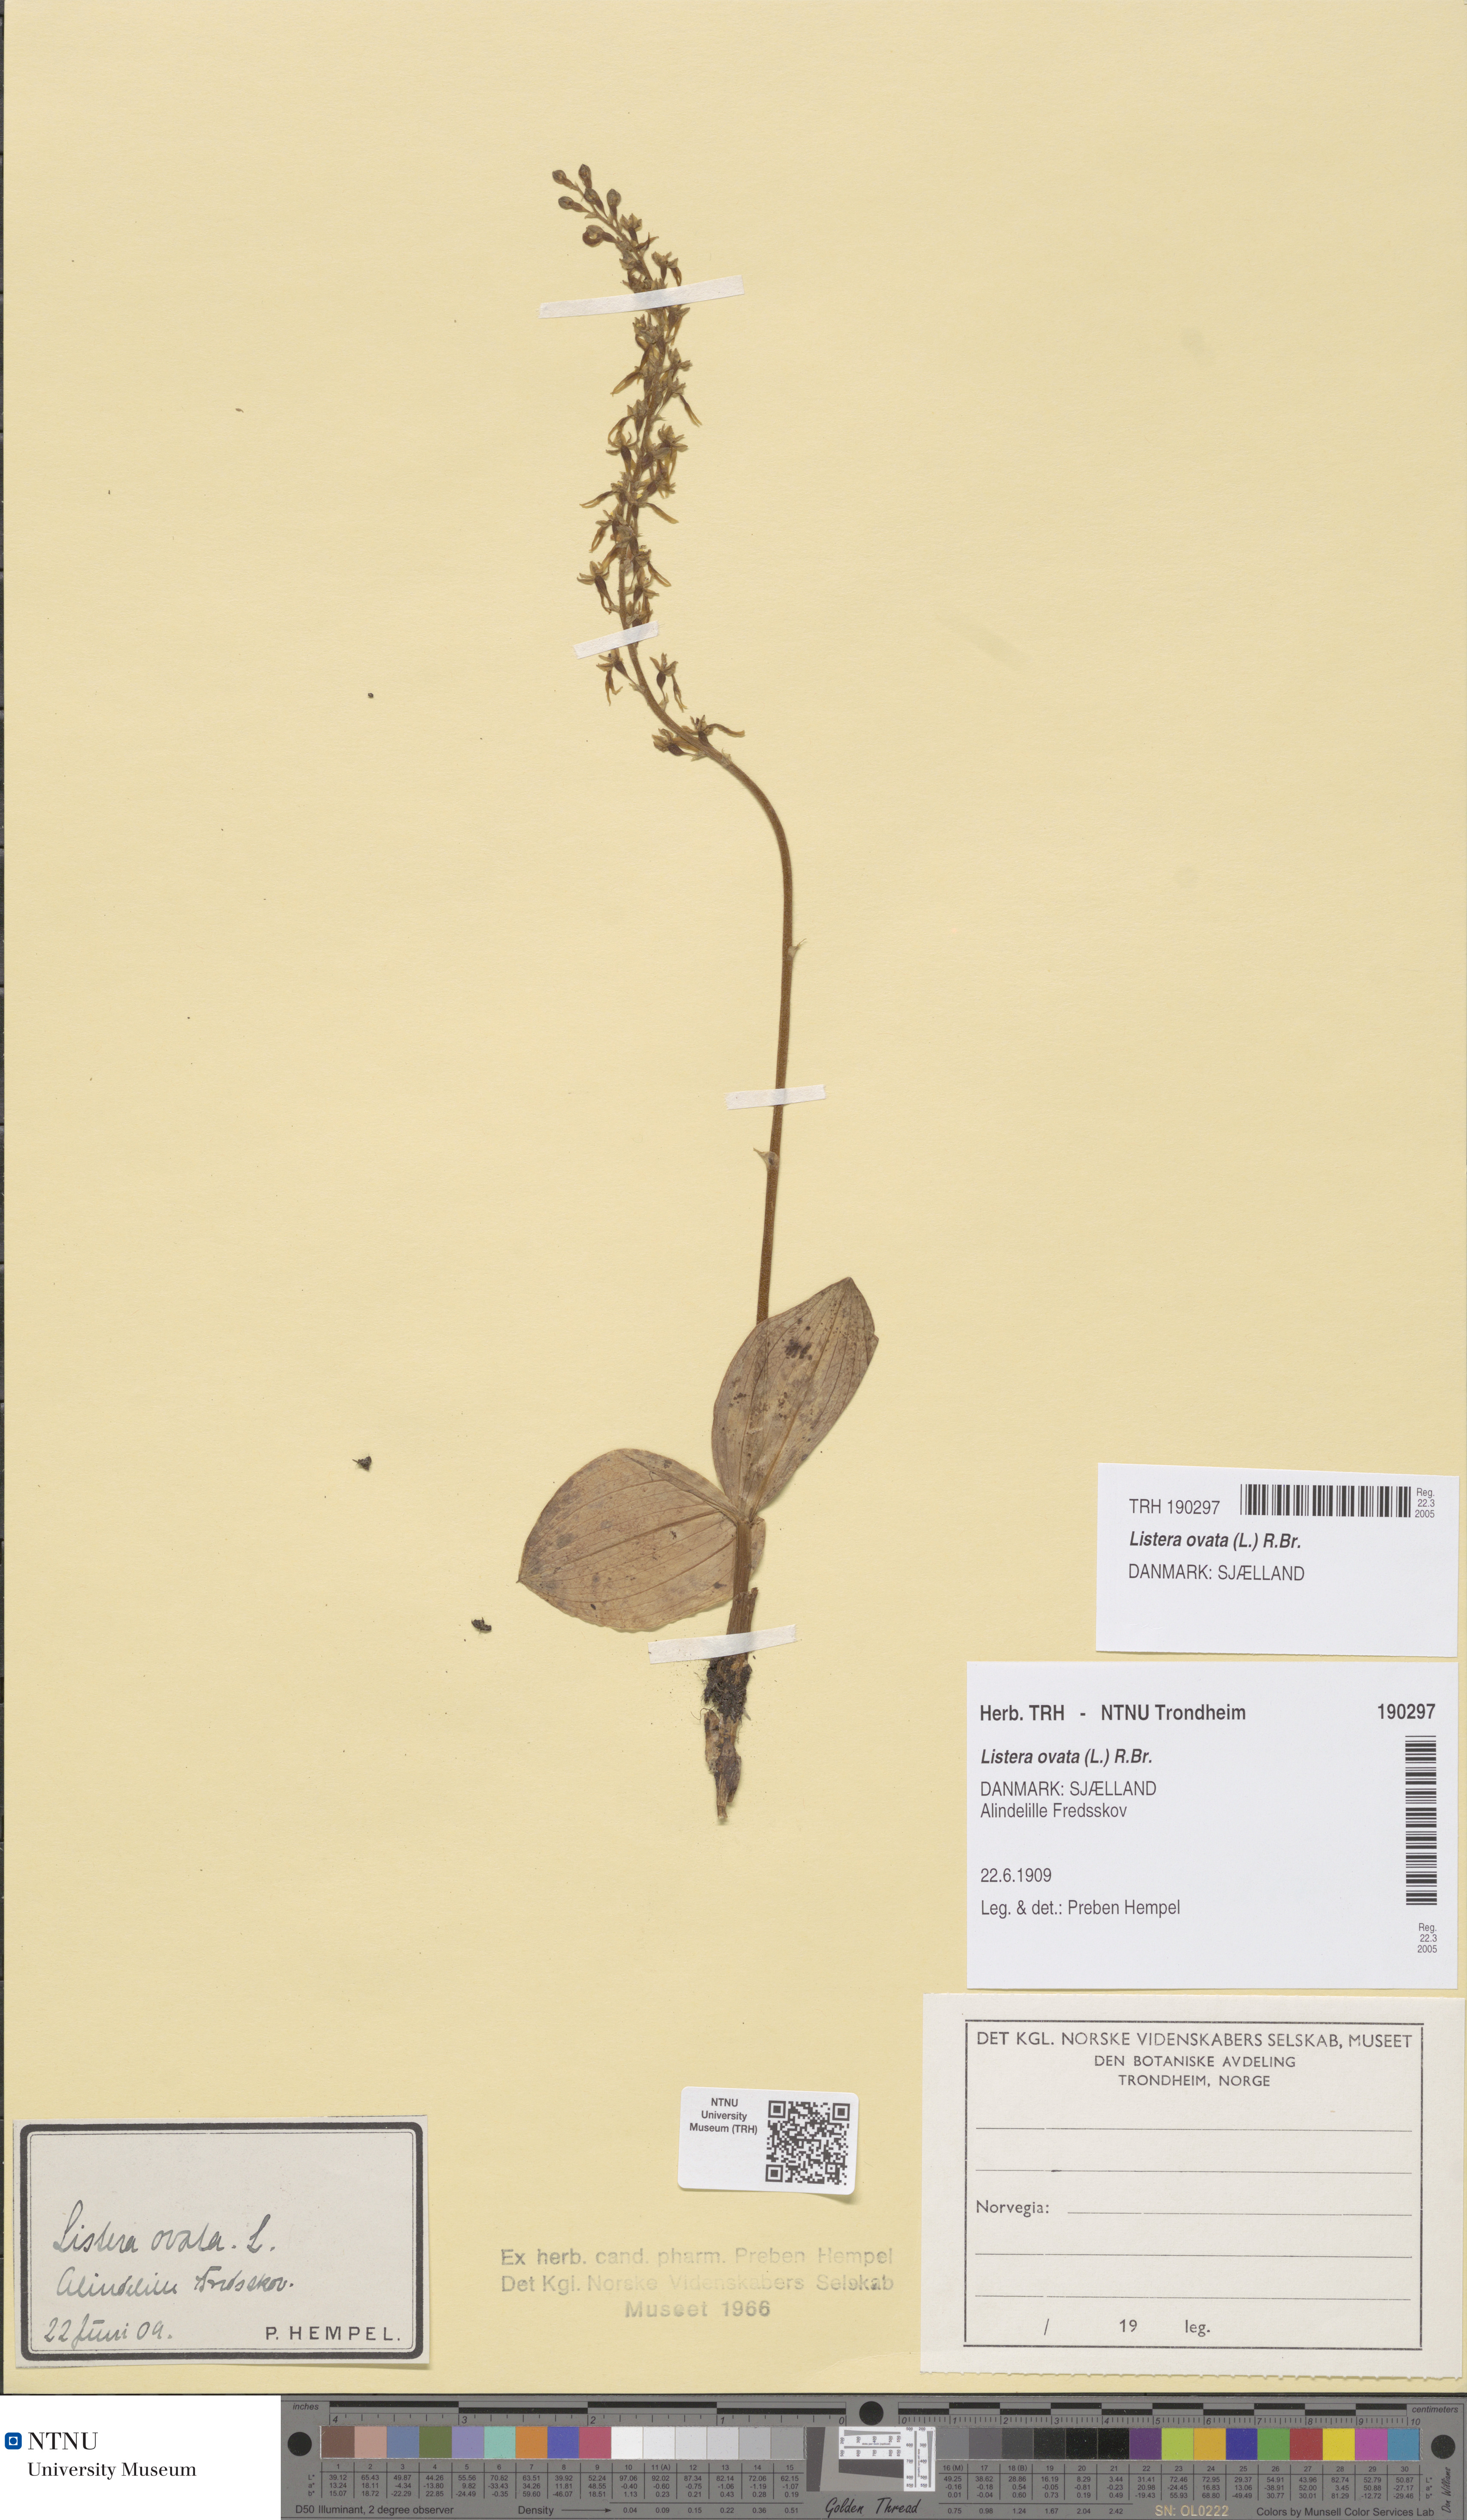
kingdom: Plantae
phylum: Tracheophyta
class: Liliopsida
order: Asparagales
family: Orchidaceae
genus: Neottia
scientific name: Neottia ovata
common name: Common twayblade
